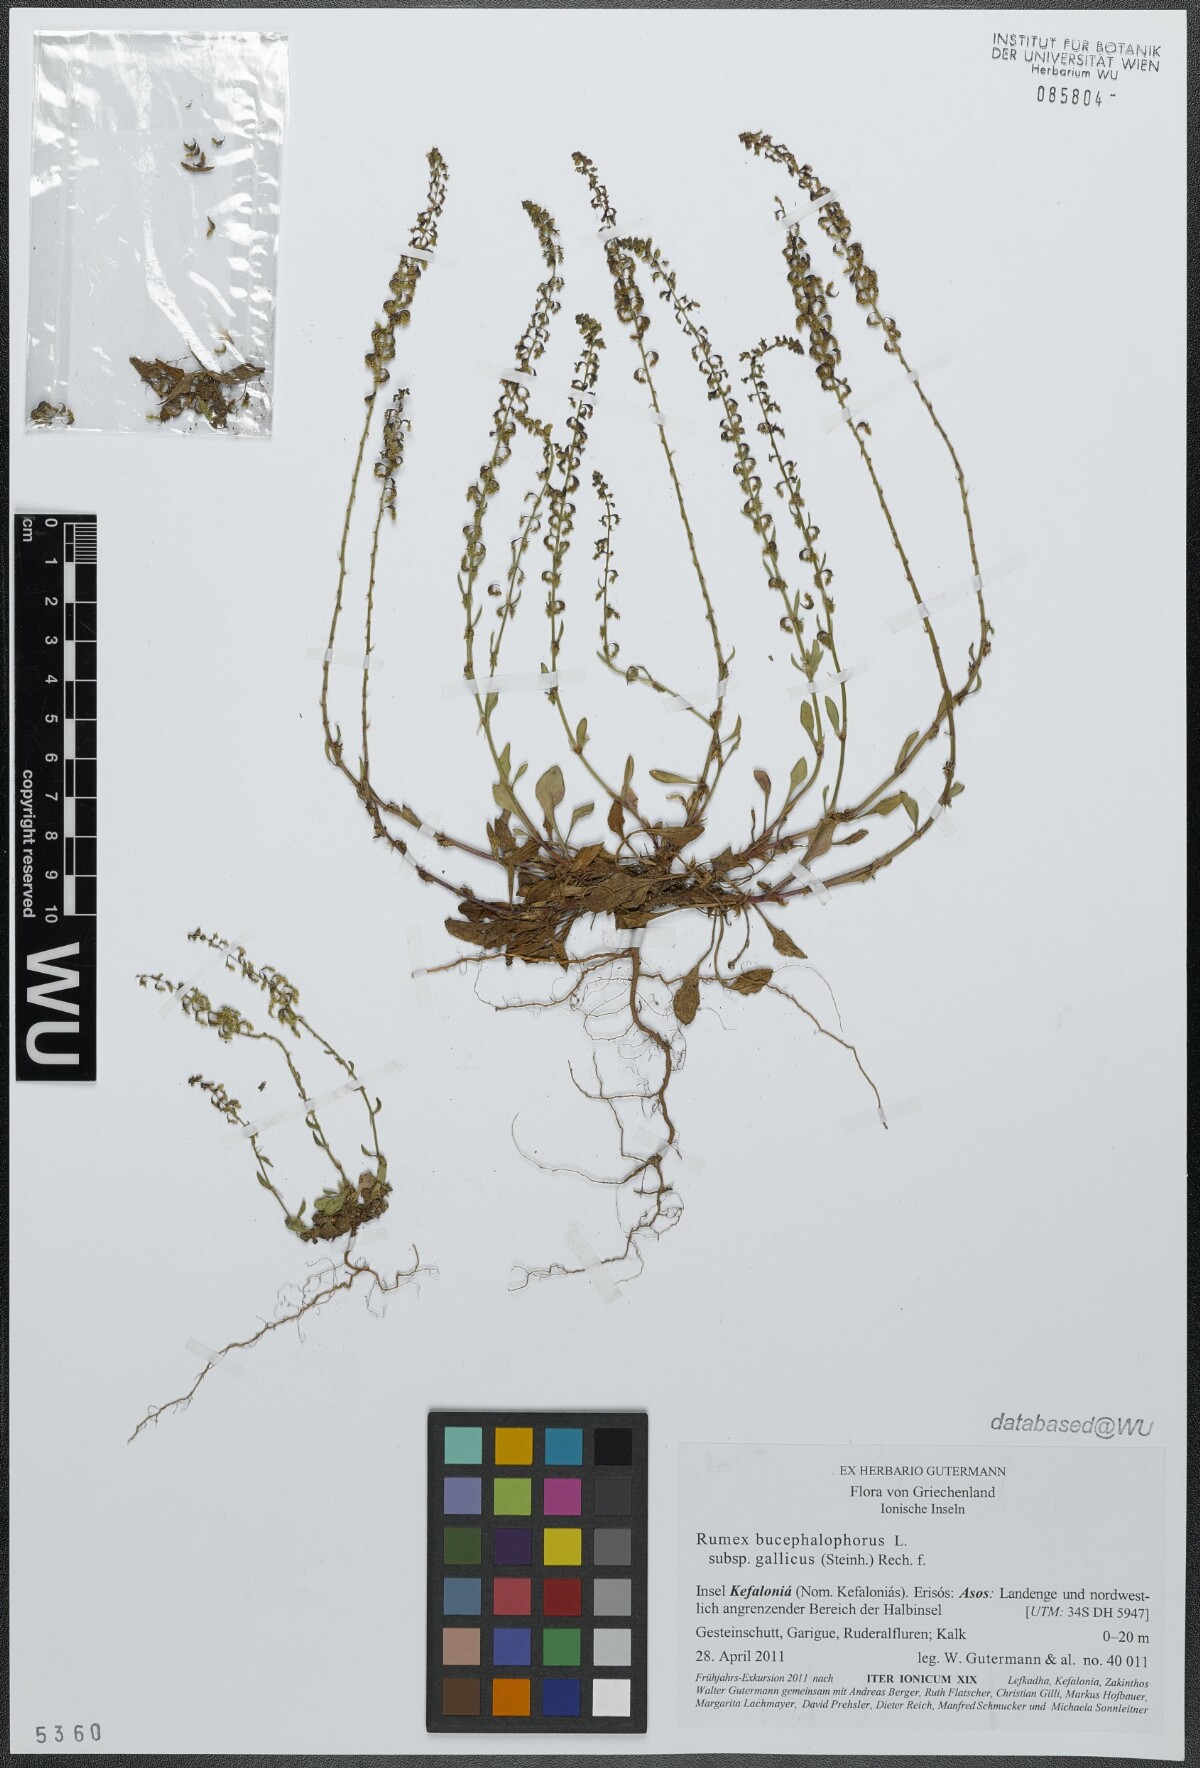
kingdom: Plantae
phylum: Tracheophyta
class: Magnoliopsida
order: Caryophyllales
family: Polygonaceae
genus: Rumex
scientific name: Rumex bucephalophorus
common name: Red dock
